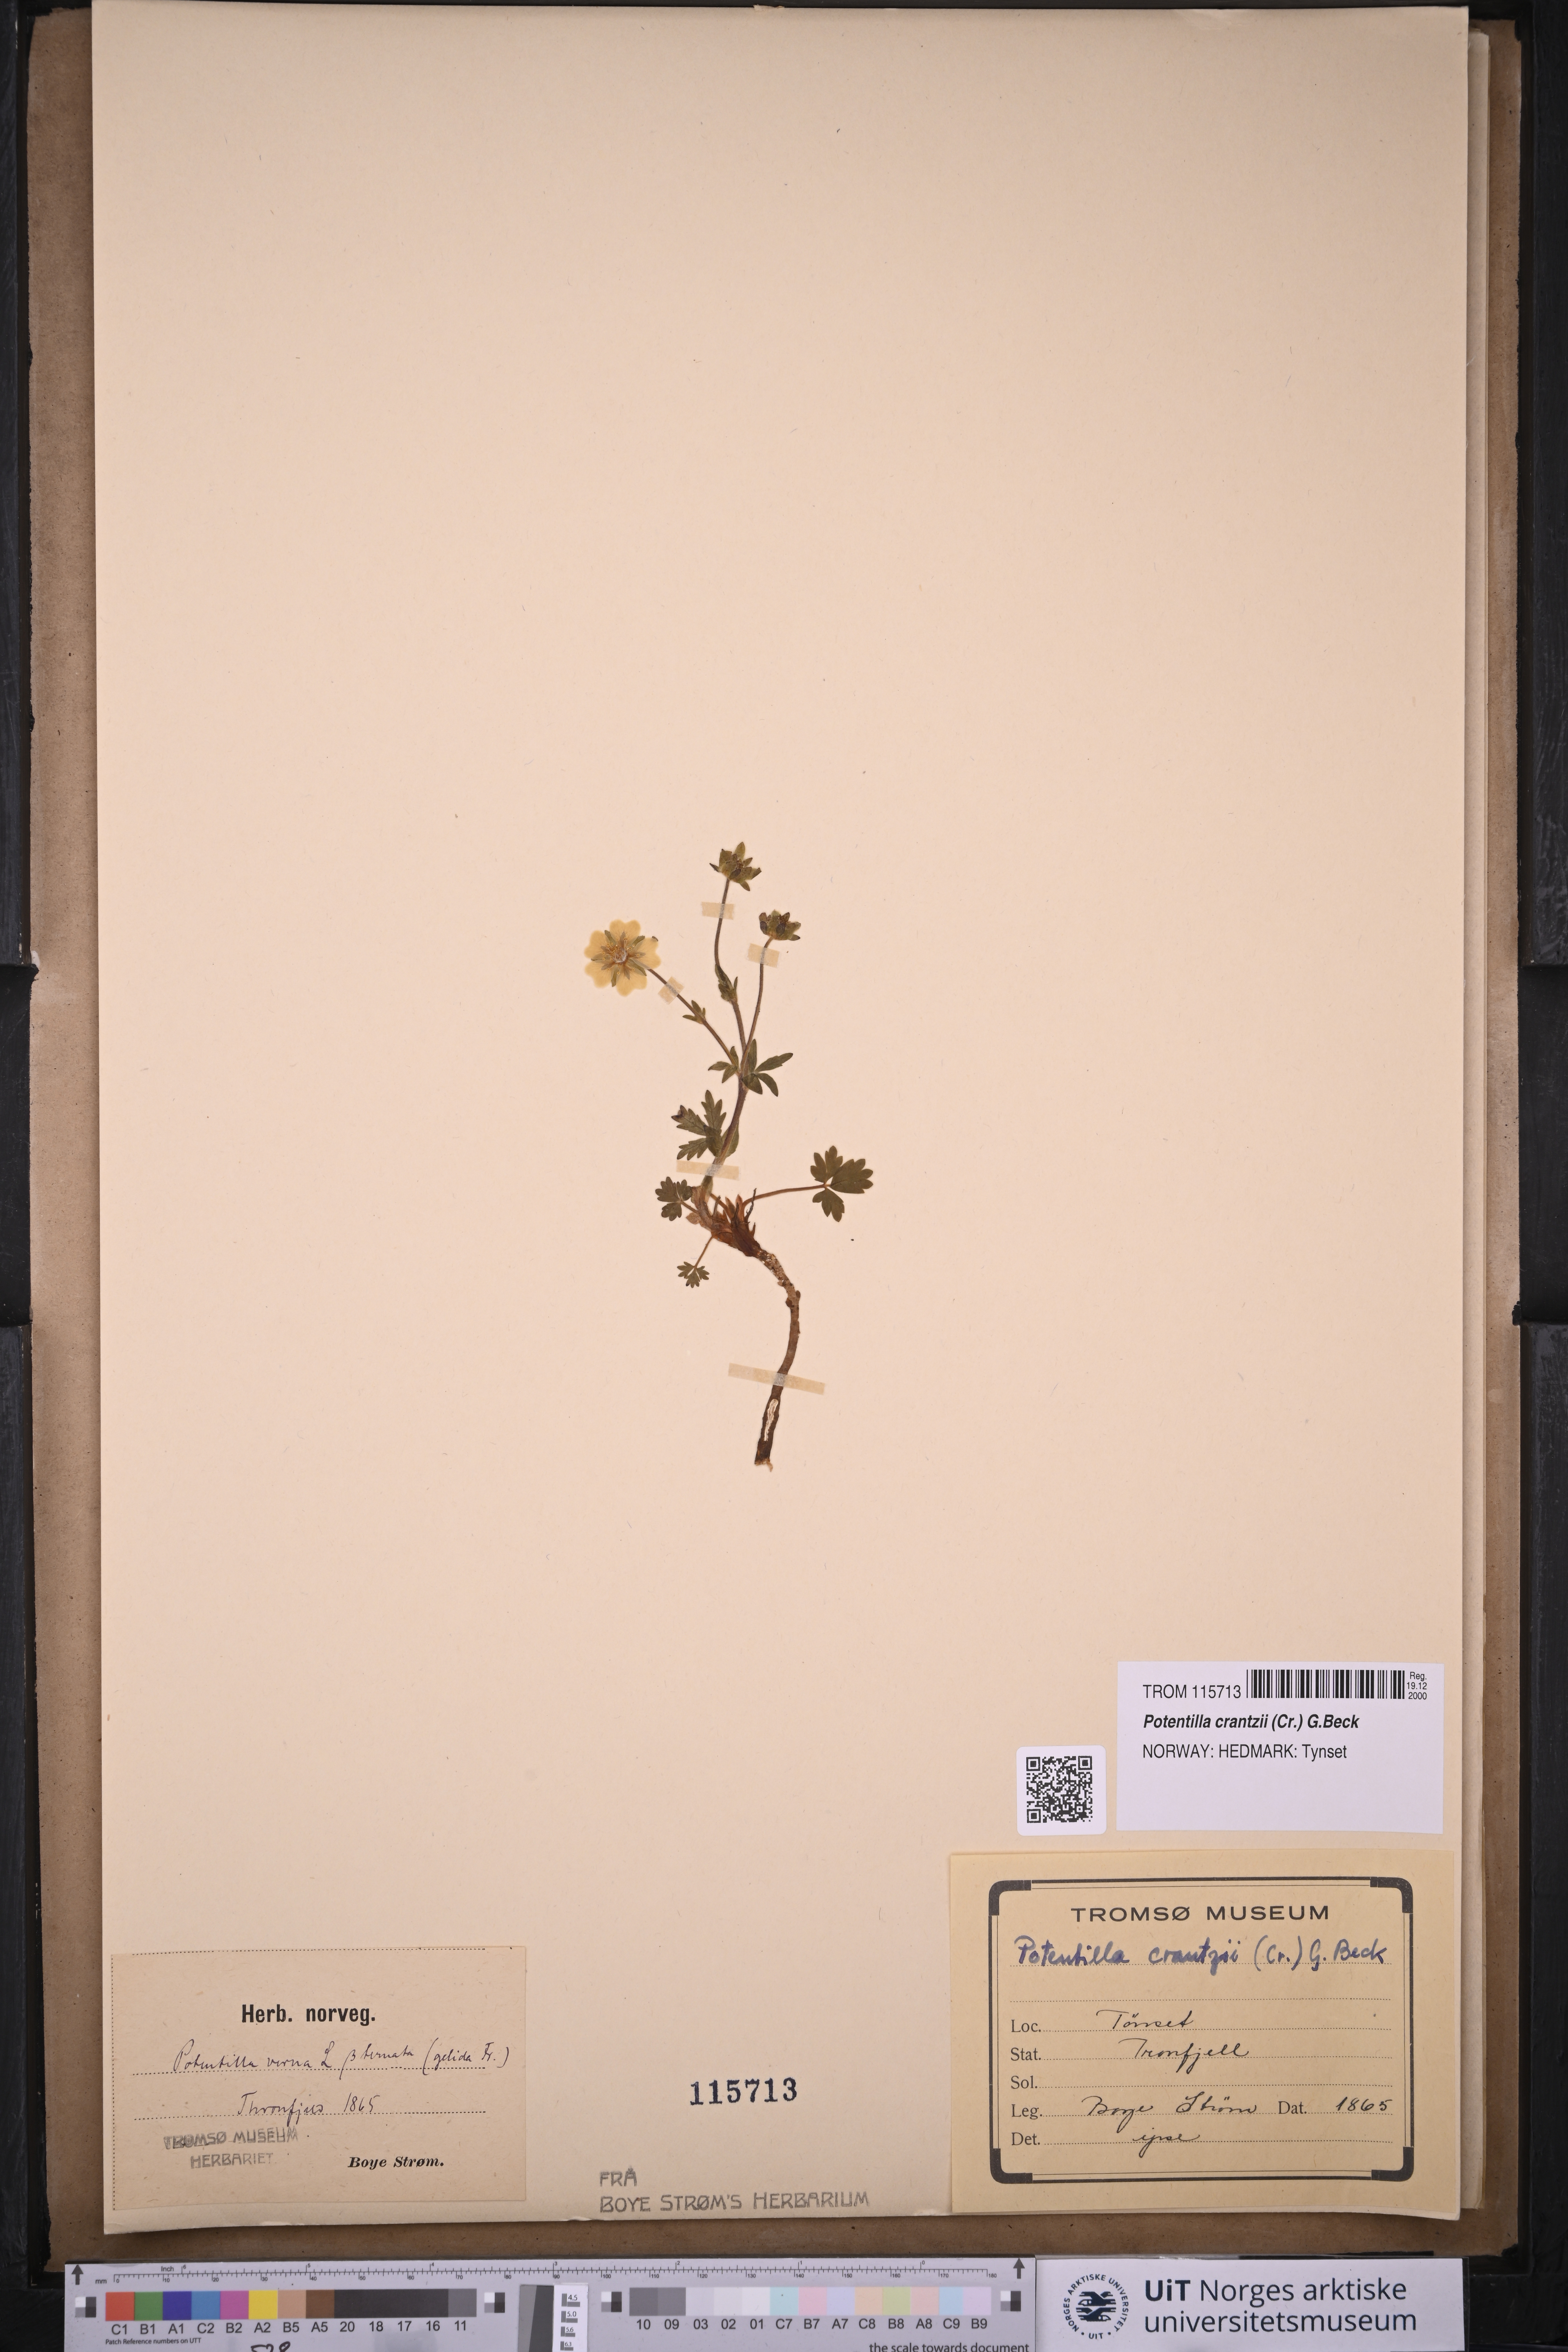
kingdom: Plantae
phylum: Tracheophyta
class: Magnoliopsida
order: Rosales
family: Rosaceae
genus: Potentilla
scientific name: Potentilla crantzii
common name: Alpine cinquefoil
